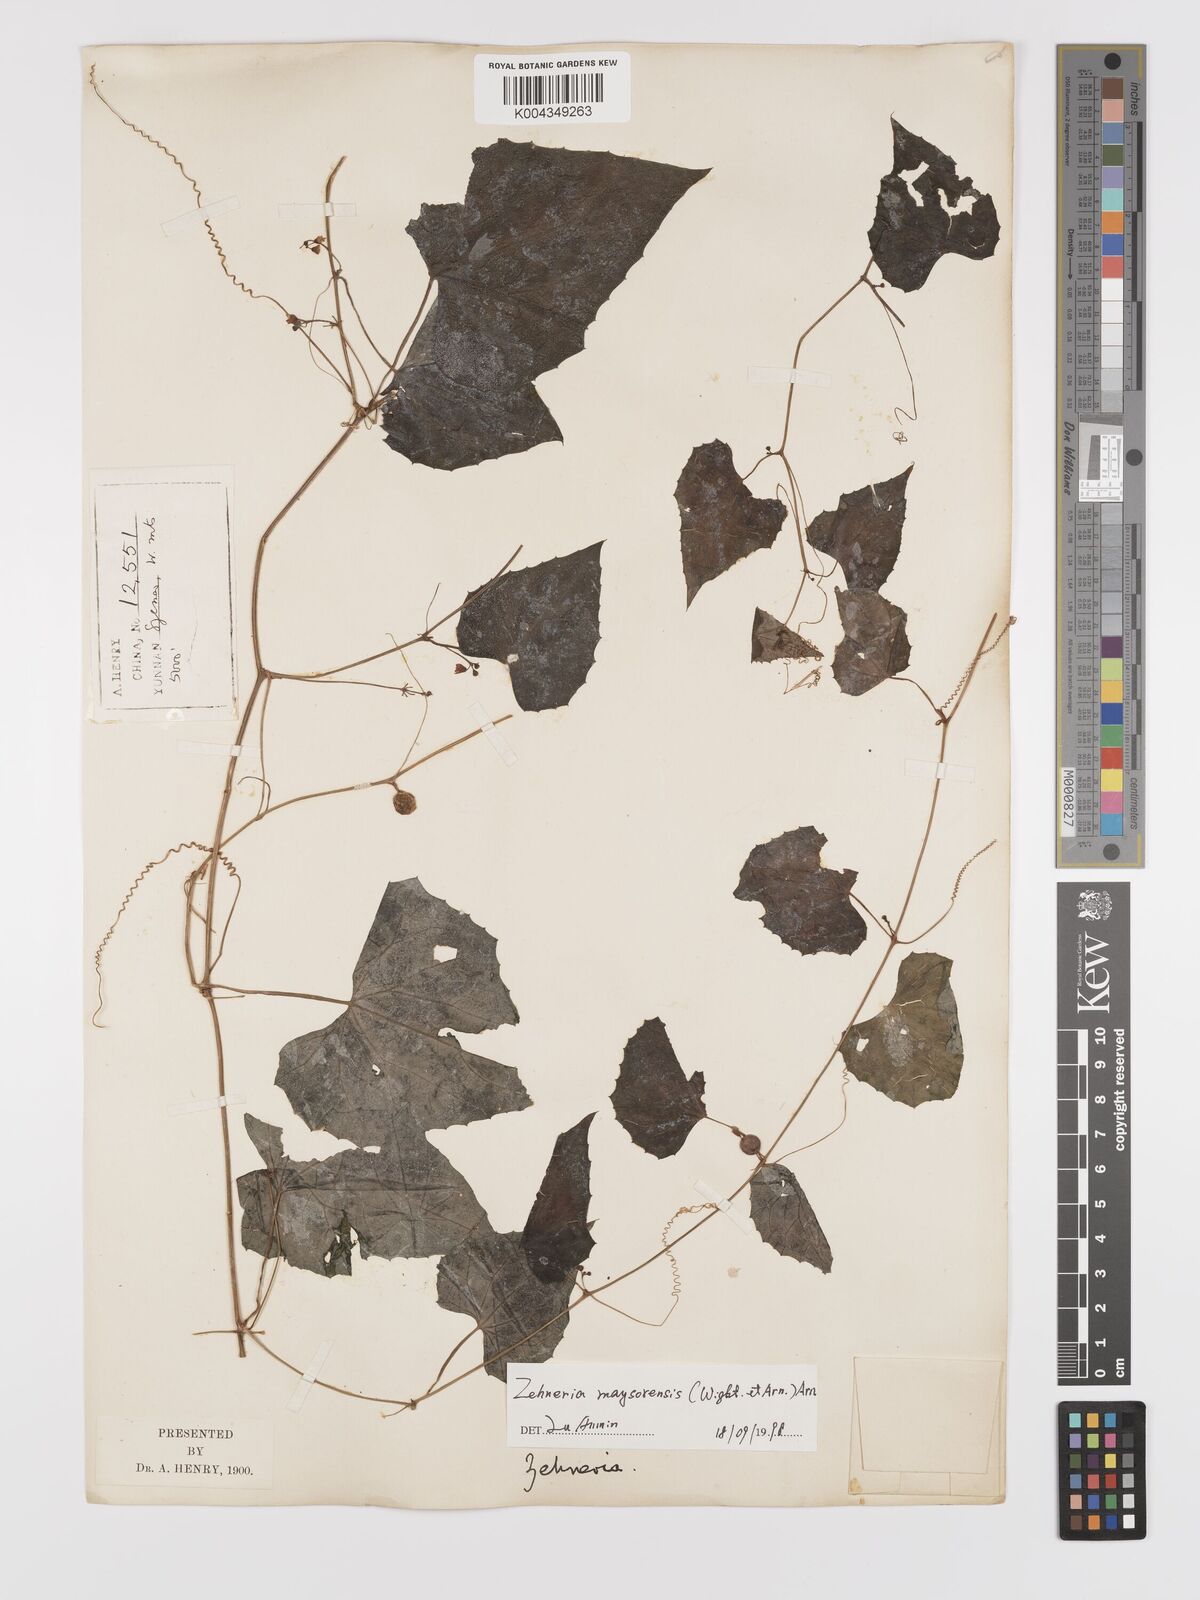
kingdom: Plantae
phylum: Tracheophyta
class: Magnoliopsida
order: Cucurbitales
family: Cucurbitaceae
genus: Zehneria
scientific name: Zehneria maysorensis
